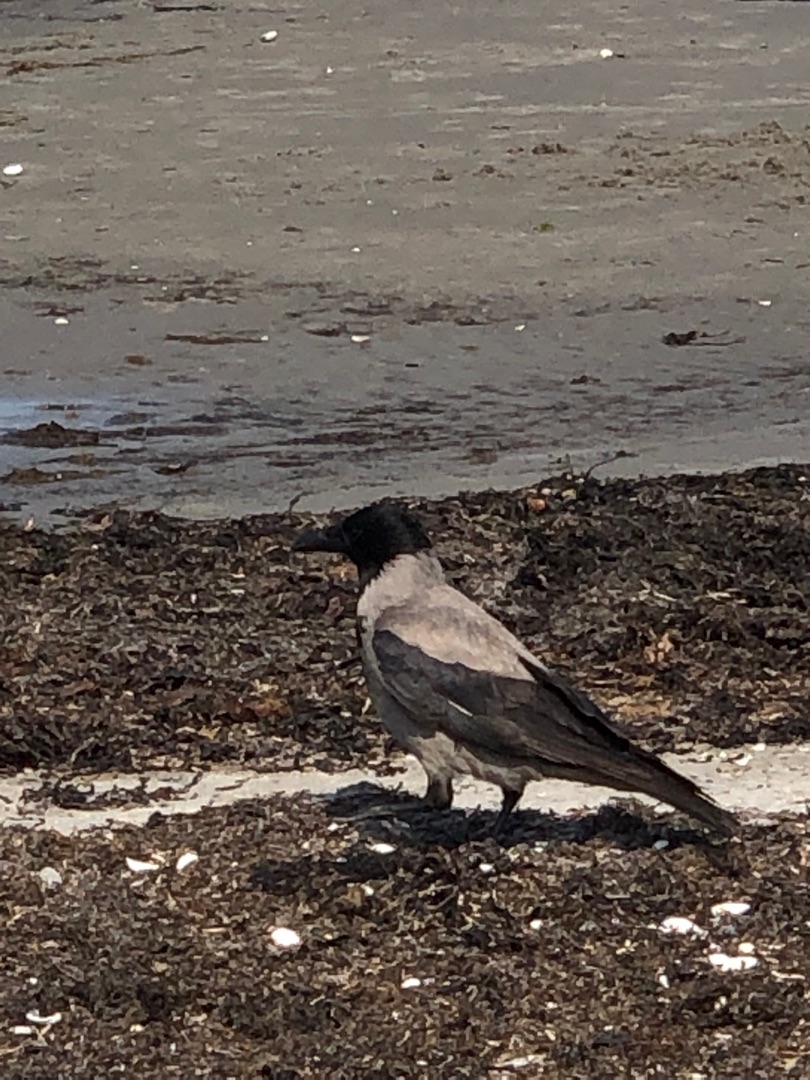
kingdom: Animalia
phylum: Chordata
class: Aves
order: Passeriformes
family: Corvidae
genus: Corvus
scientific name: Corvus cornix
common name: Gråkrage
